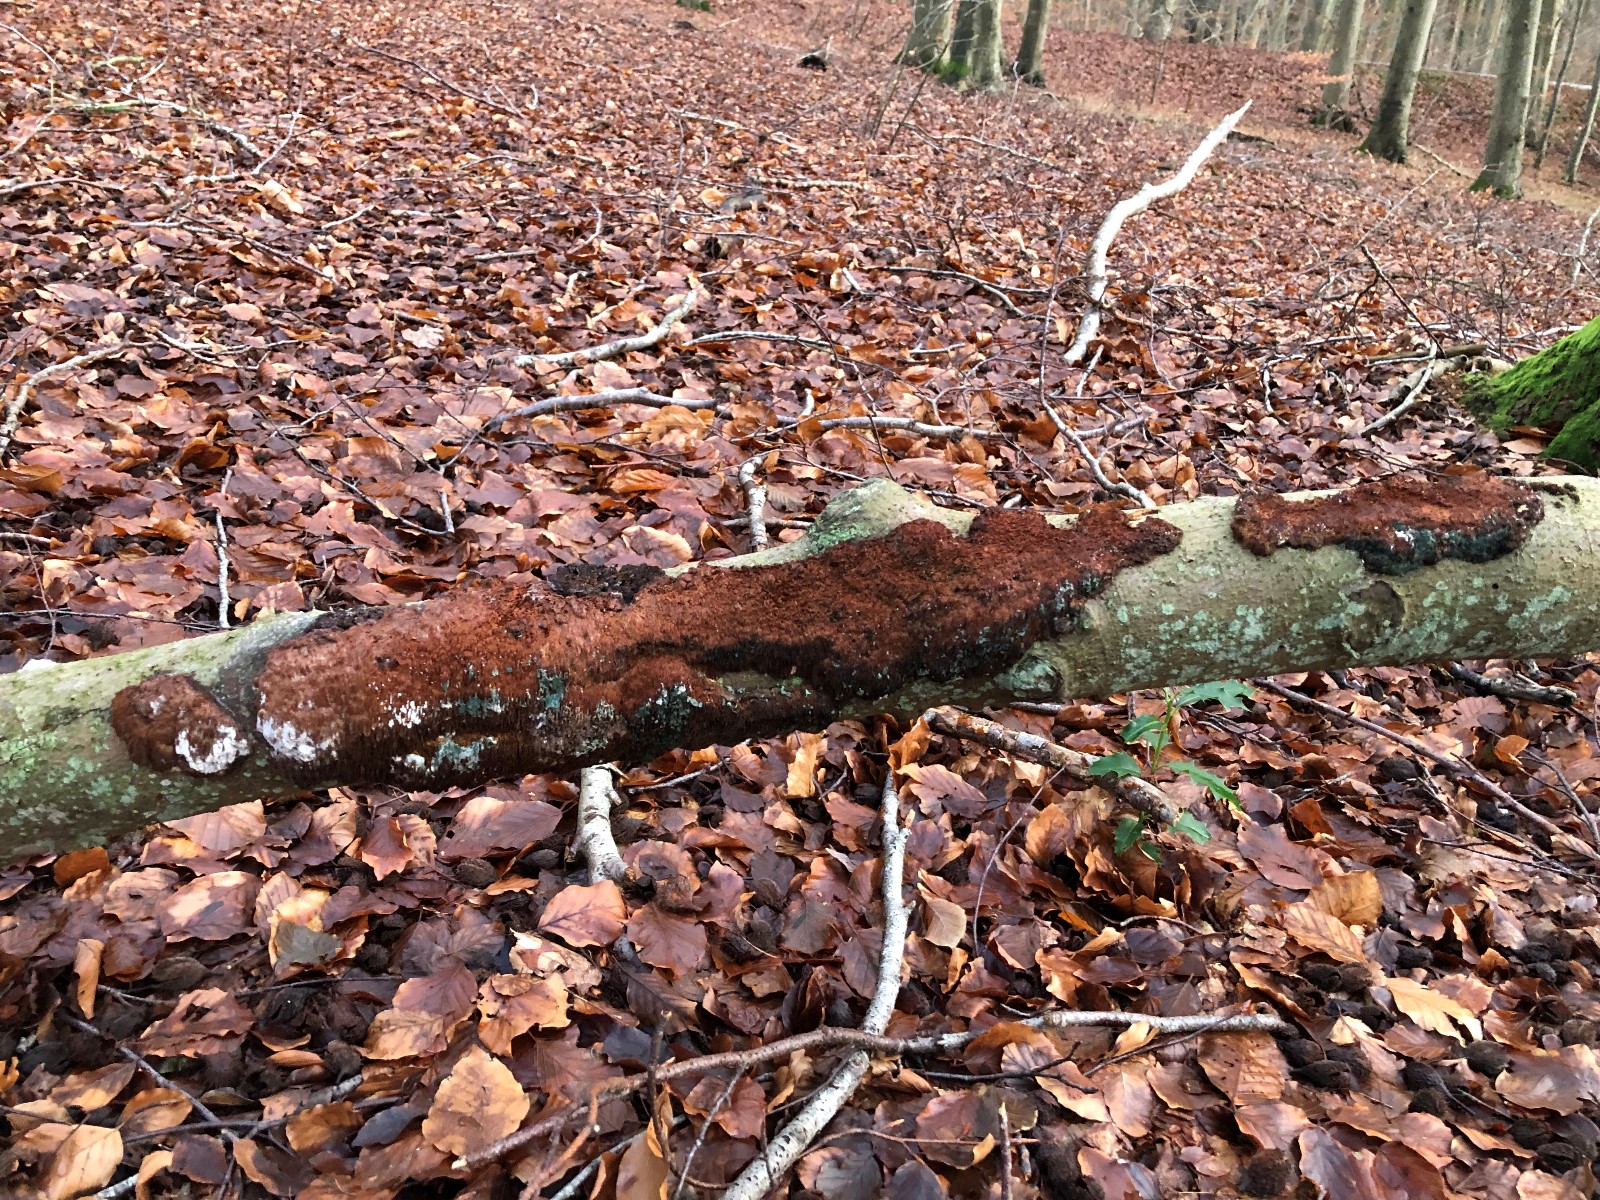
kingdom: Fungi
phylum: Basidiomycota
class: Agaricomycetes
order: Hymenochaetales
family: Hymenochaetaceae
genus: Mensularia
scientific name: Mensularia nodulosa
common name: bøge-spejlporesvamp
